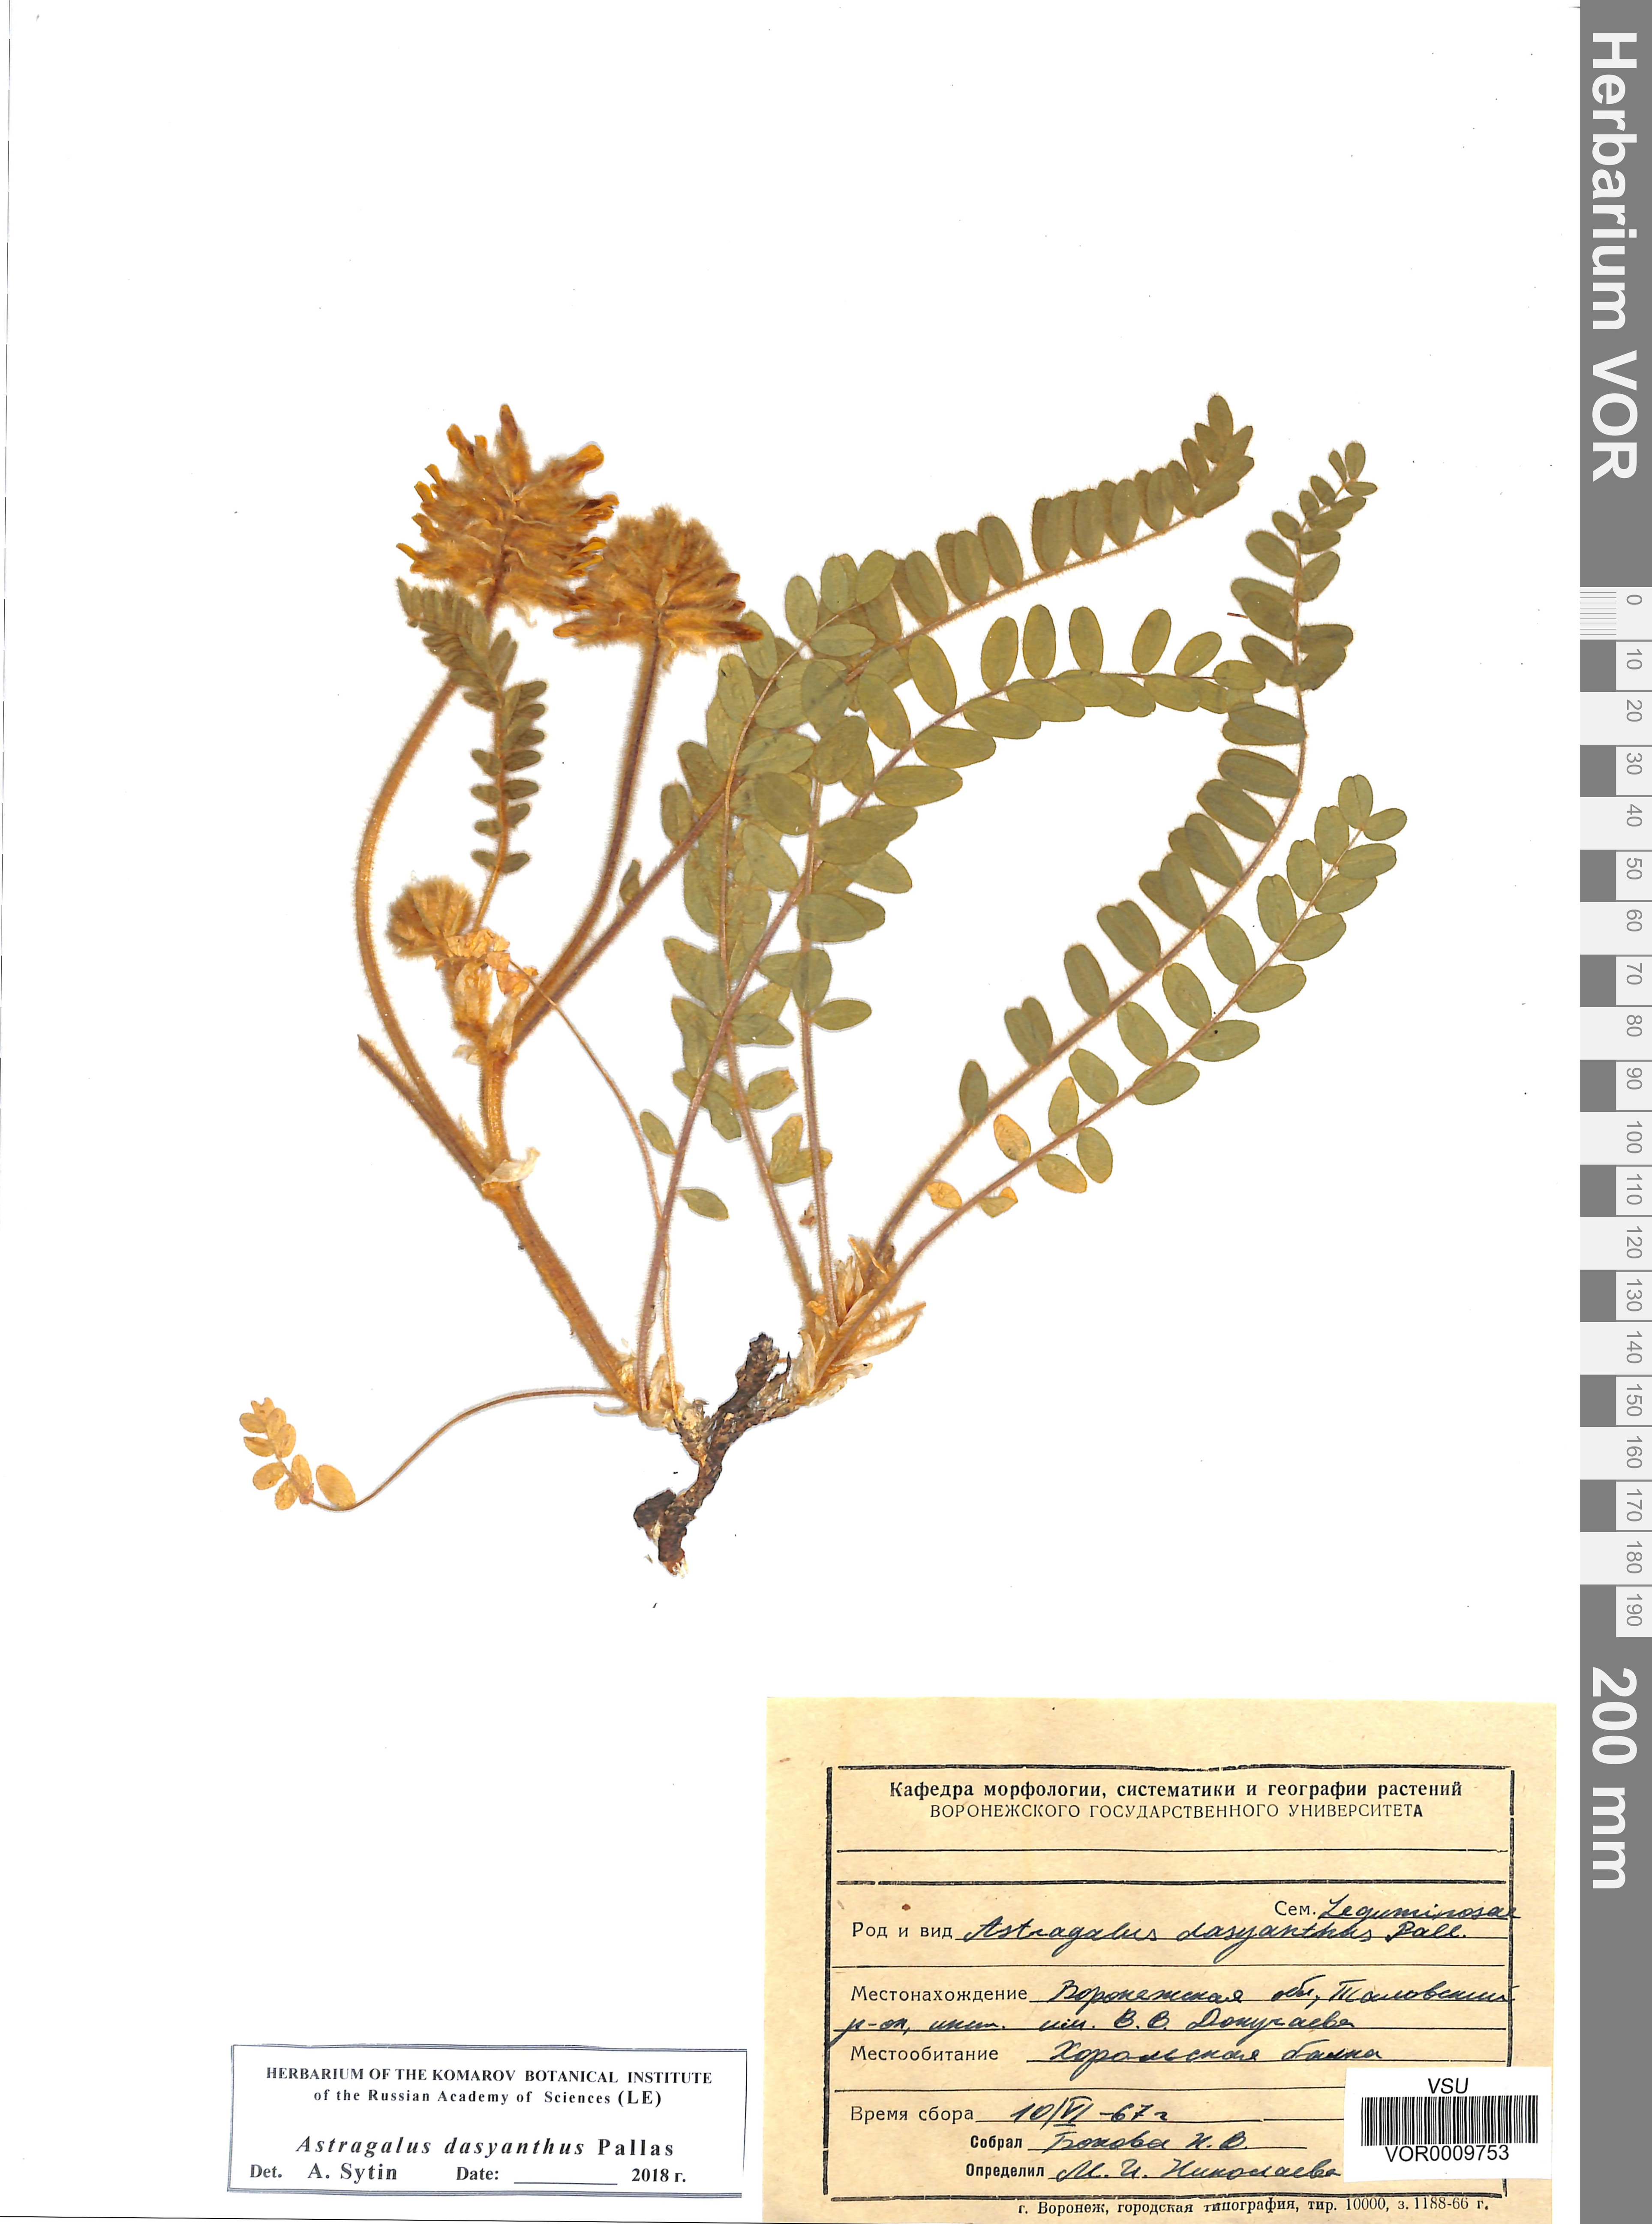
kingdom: Plantae
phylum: Tracheophyta
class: Magnoliopsida
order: Fabales
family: Fabaceae
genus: Astragalus
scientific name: Astragalus dasyanthus
